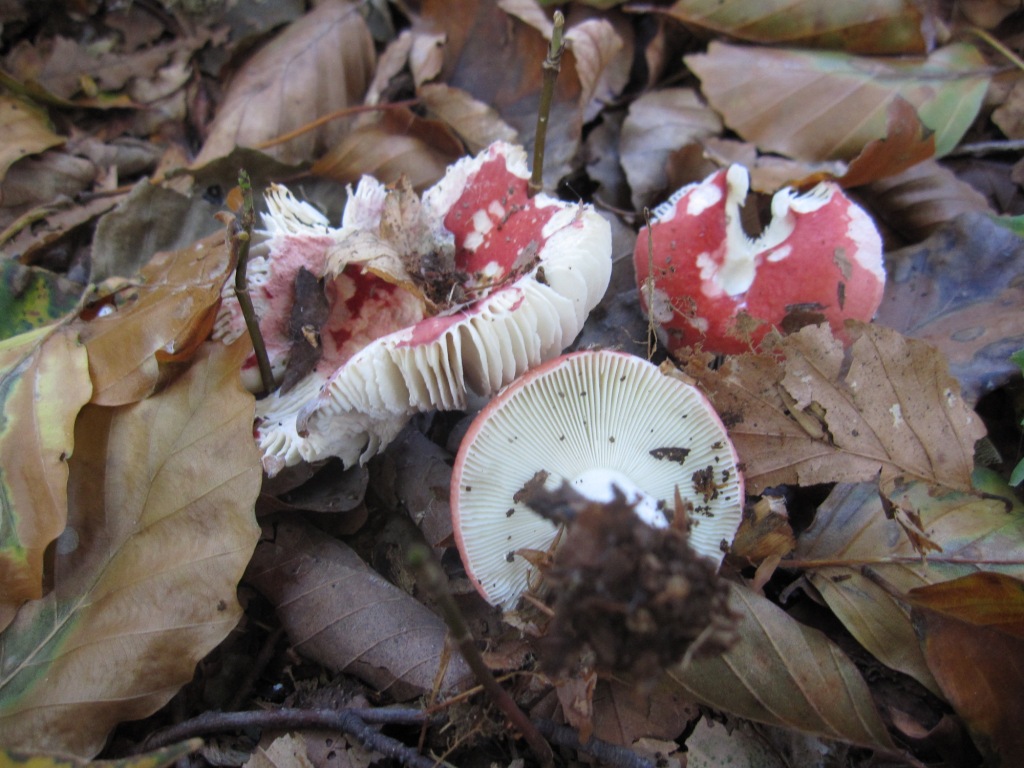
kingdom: Fungi
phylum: Basidiomycota
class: Agaricomycetes
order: Russulales
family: Russulaceae
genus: Russula
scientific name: Russula nobilis
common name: lille gift-skørhat
